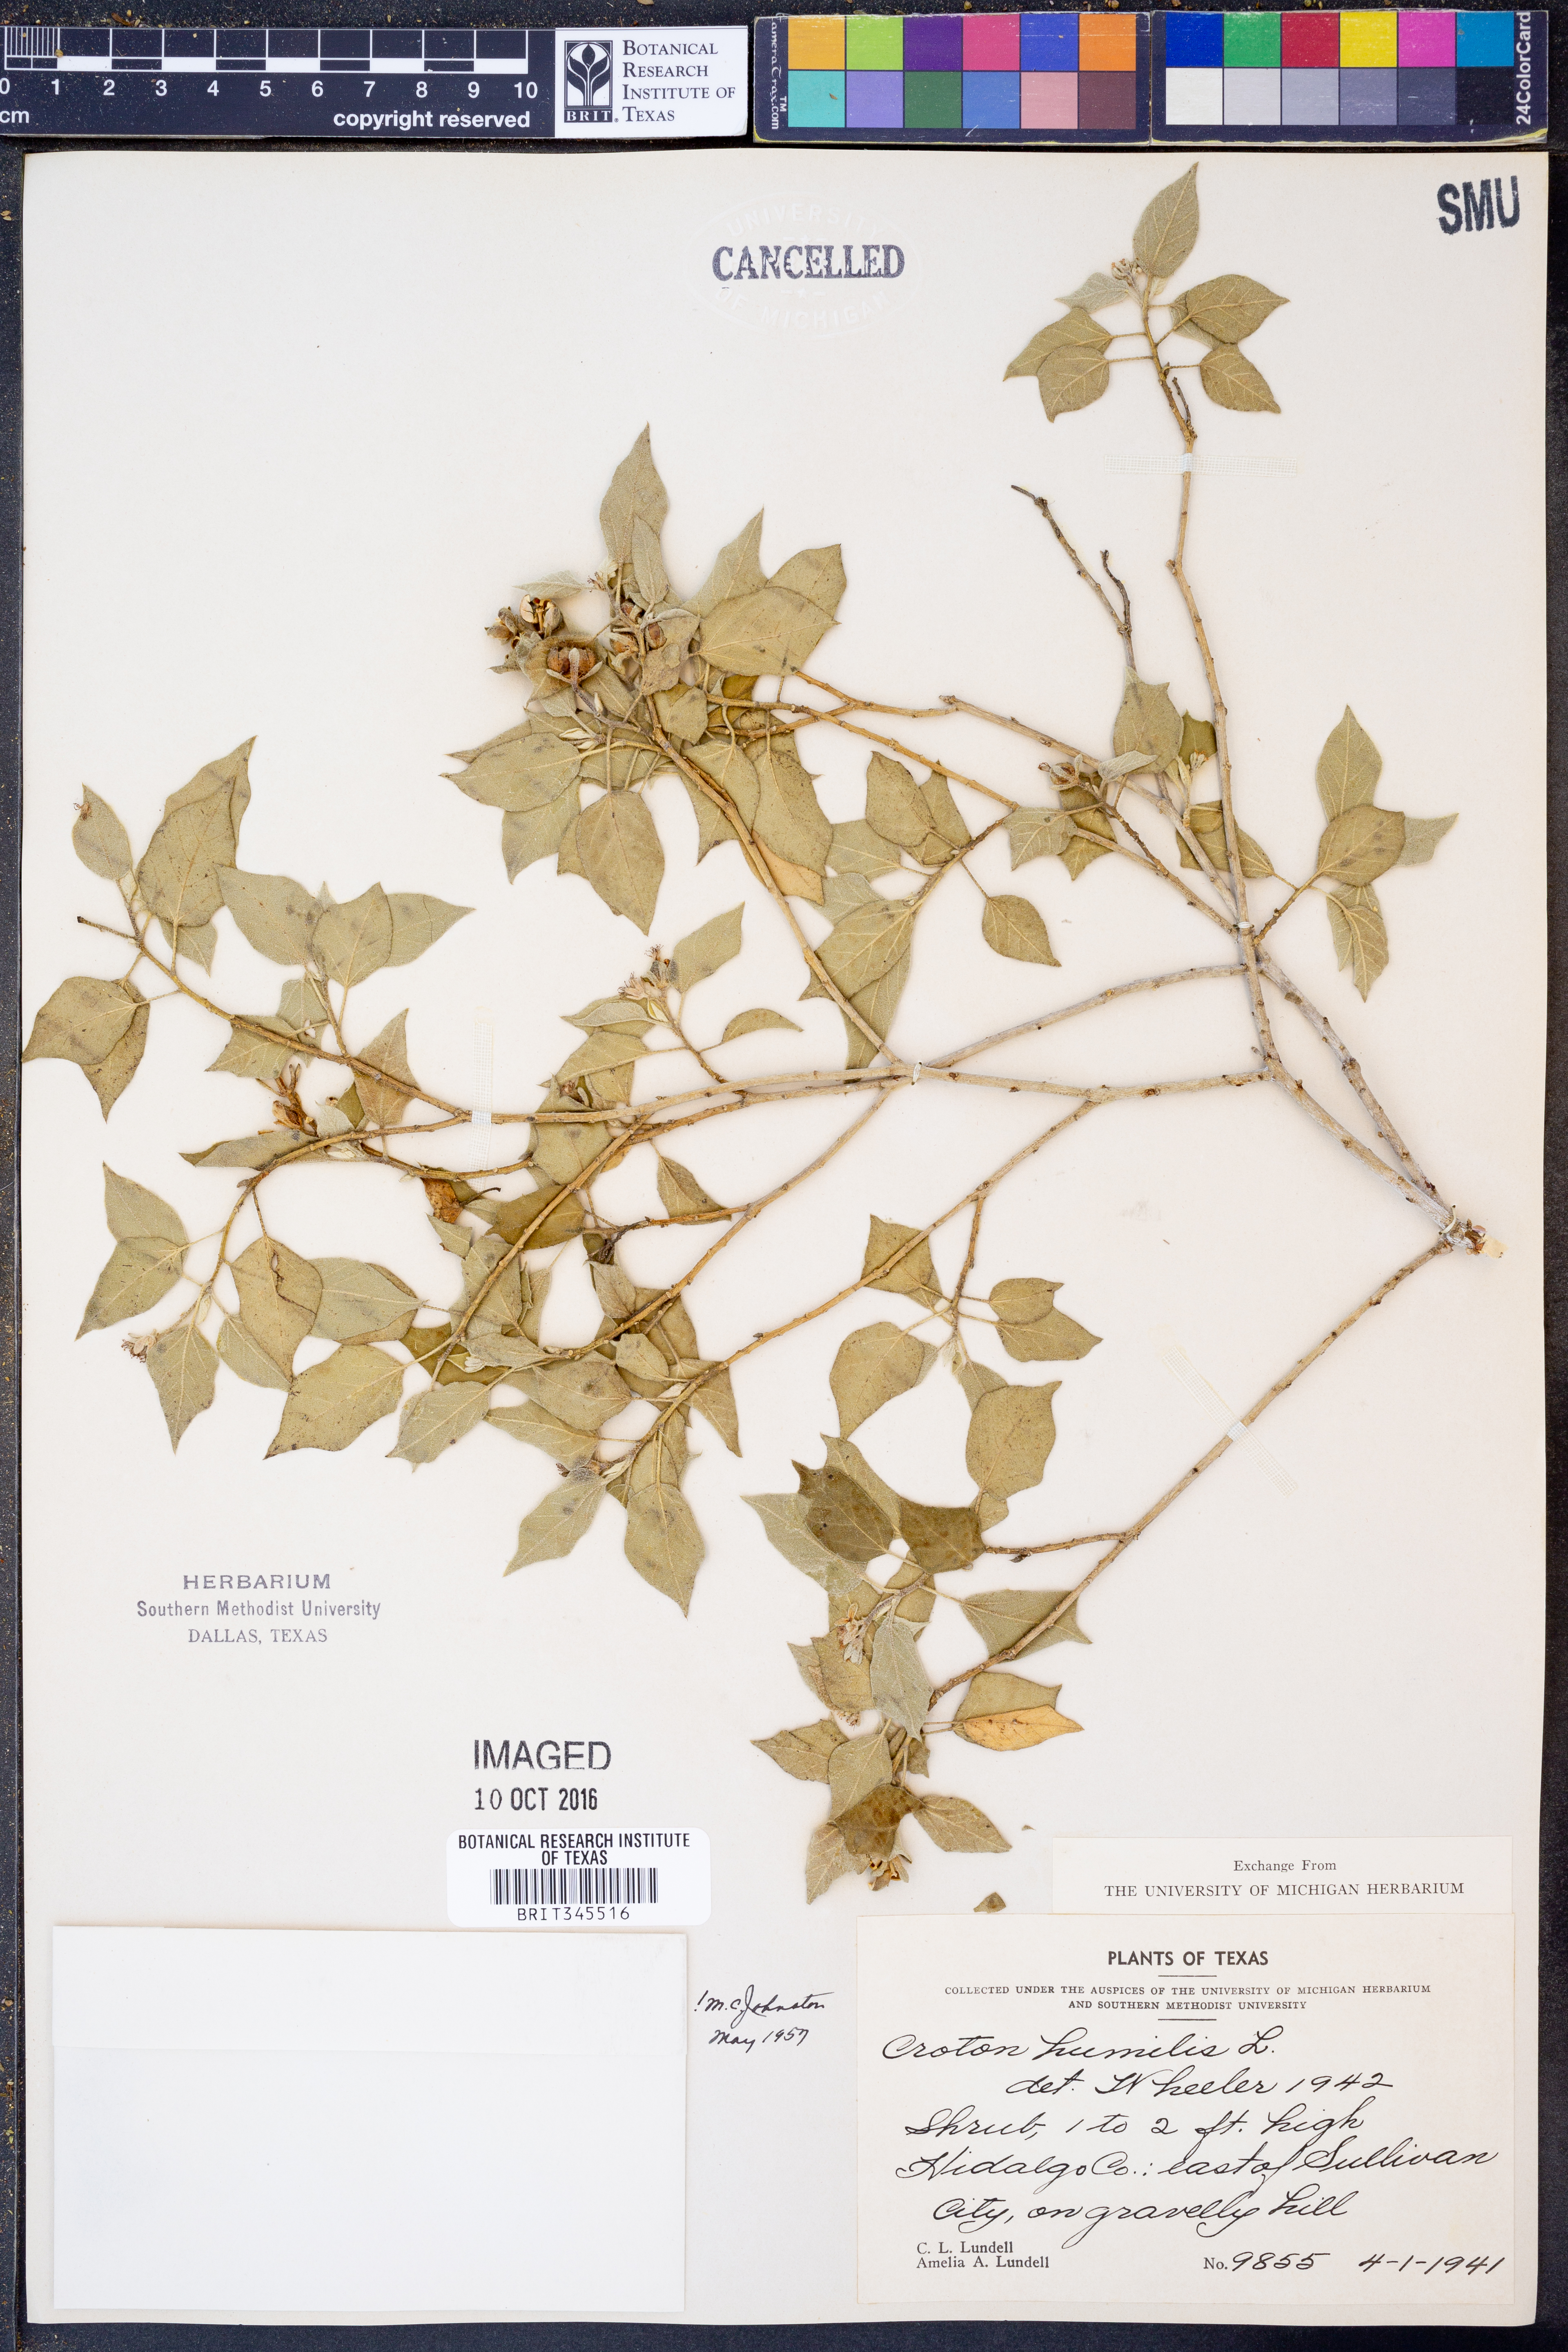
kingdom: Plantae
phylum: Tracheophyta
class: Magnoliopsida
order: Malpighiales
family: Euphorbiaceae
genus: Croton
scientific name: Croton humilis
